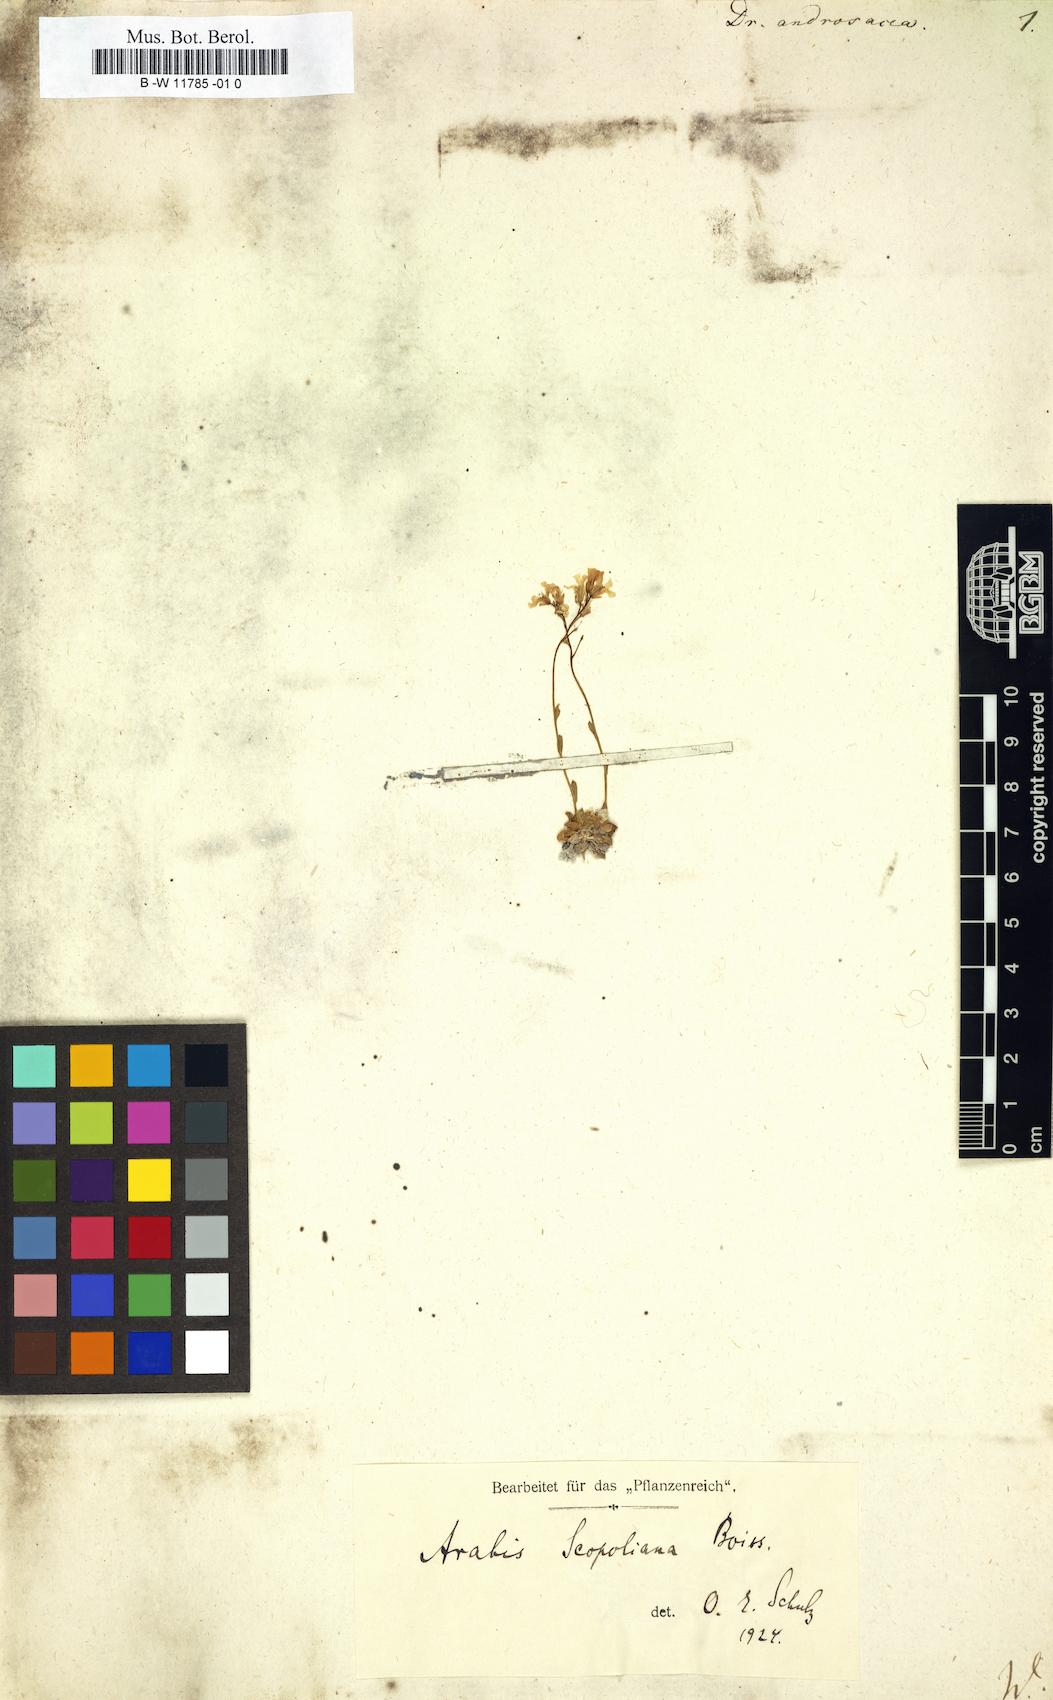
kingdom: Plantae
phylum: Tracheophyta
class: Magnoliopsida
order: Brassicales
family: Brassicaceae
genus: Draba
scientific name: Draba
